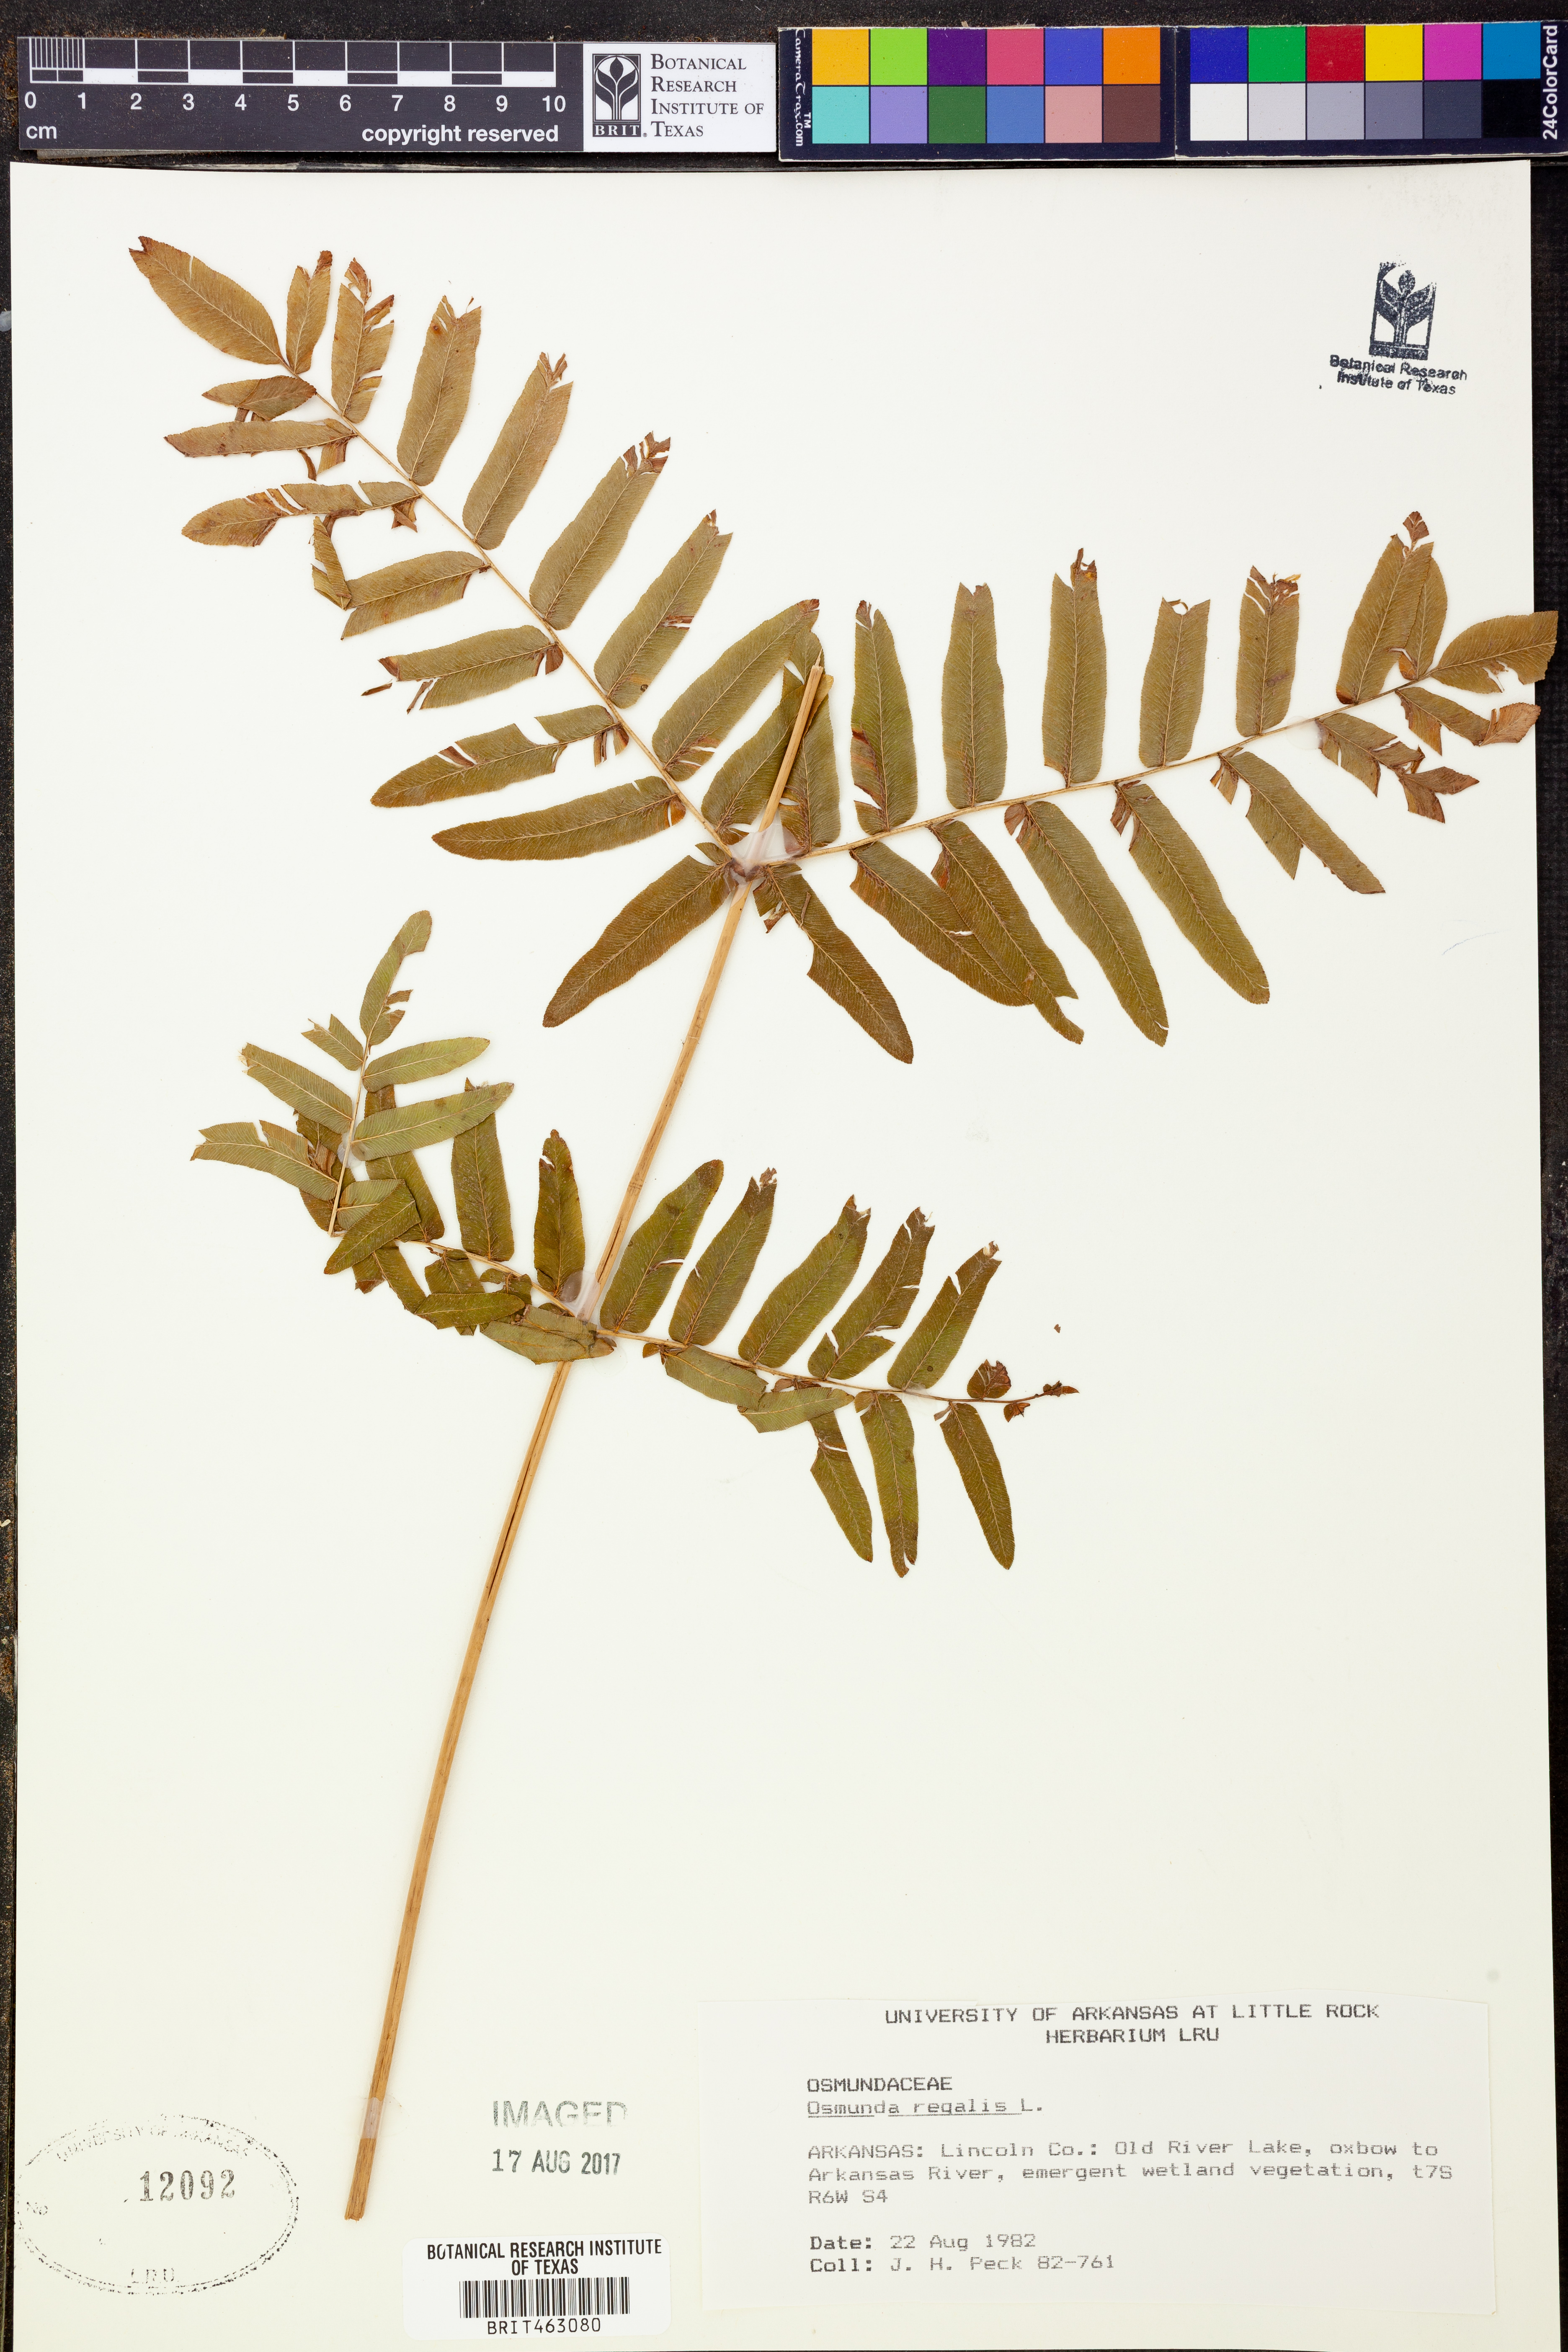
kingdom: Plantae
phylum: Tracheophyta
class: Polypodiopsida
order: Osmundales
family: Osmundaceae
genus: Osmunda
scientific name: Osmunda regalis
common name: Royal fern
